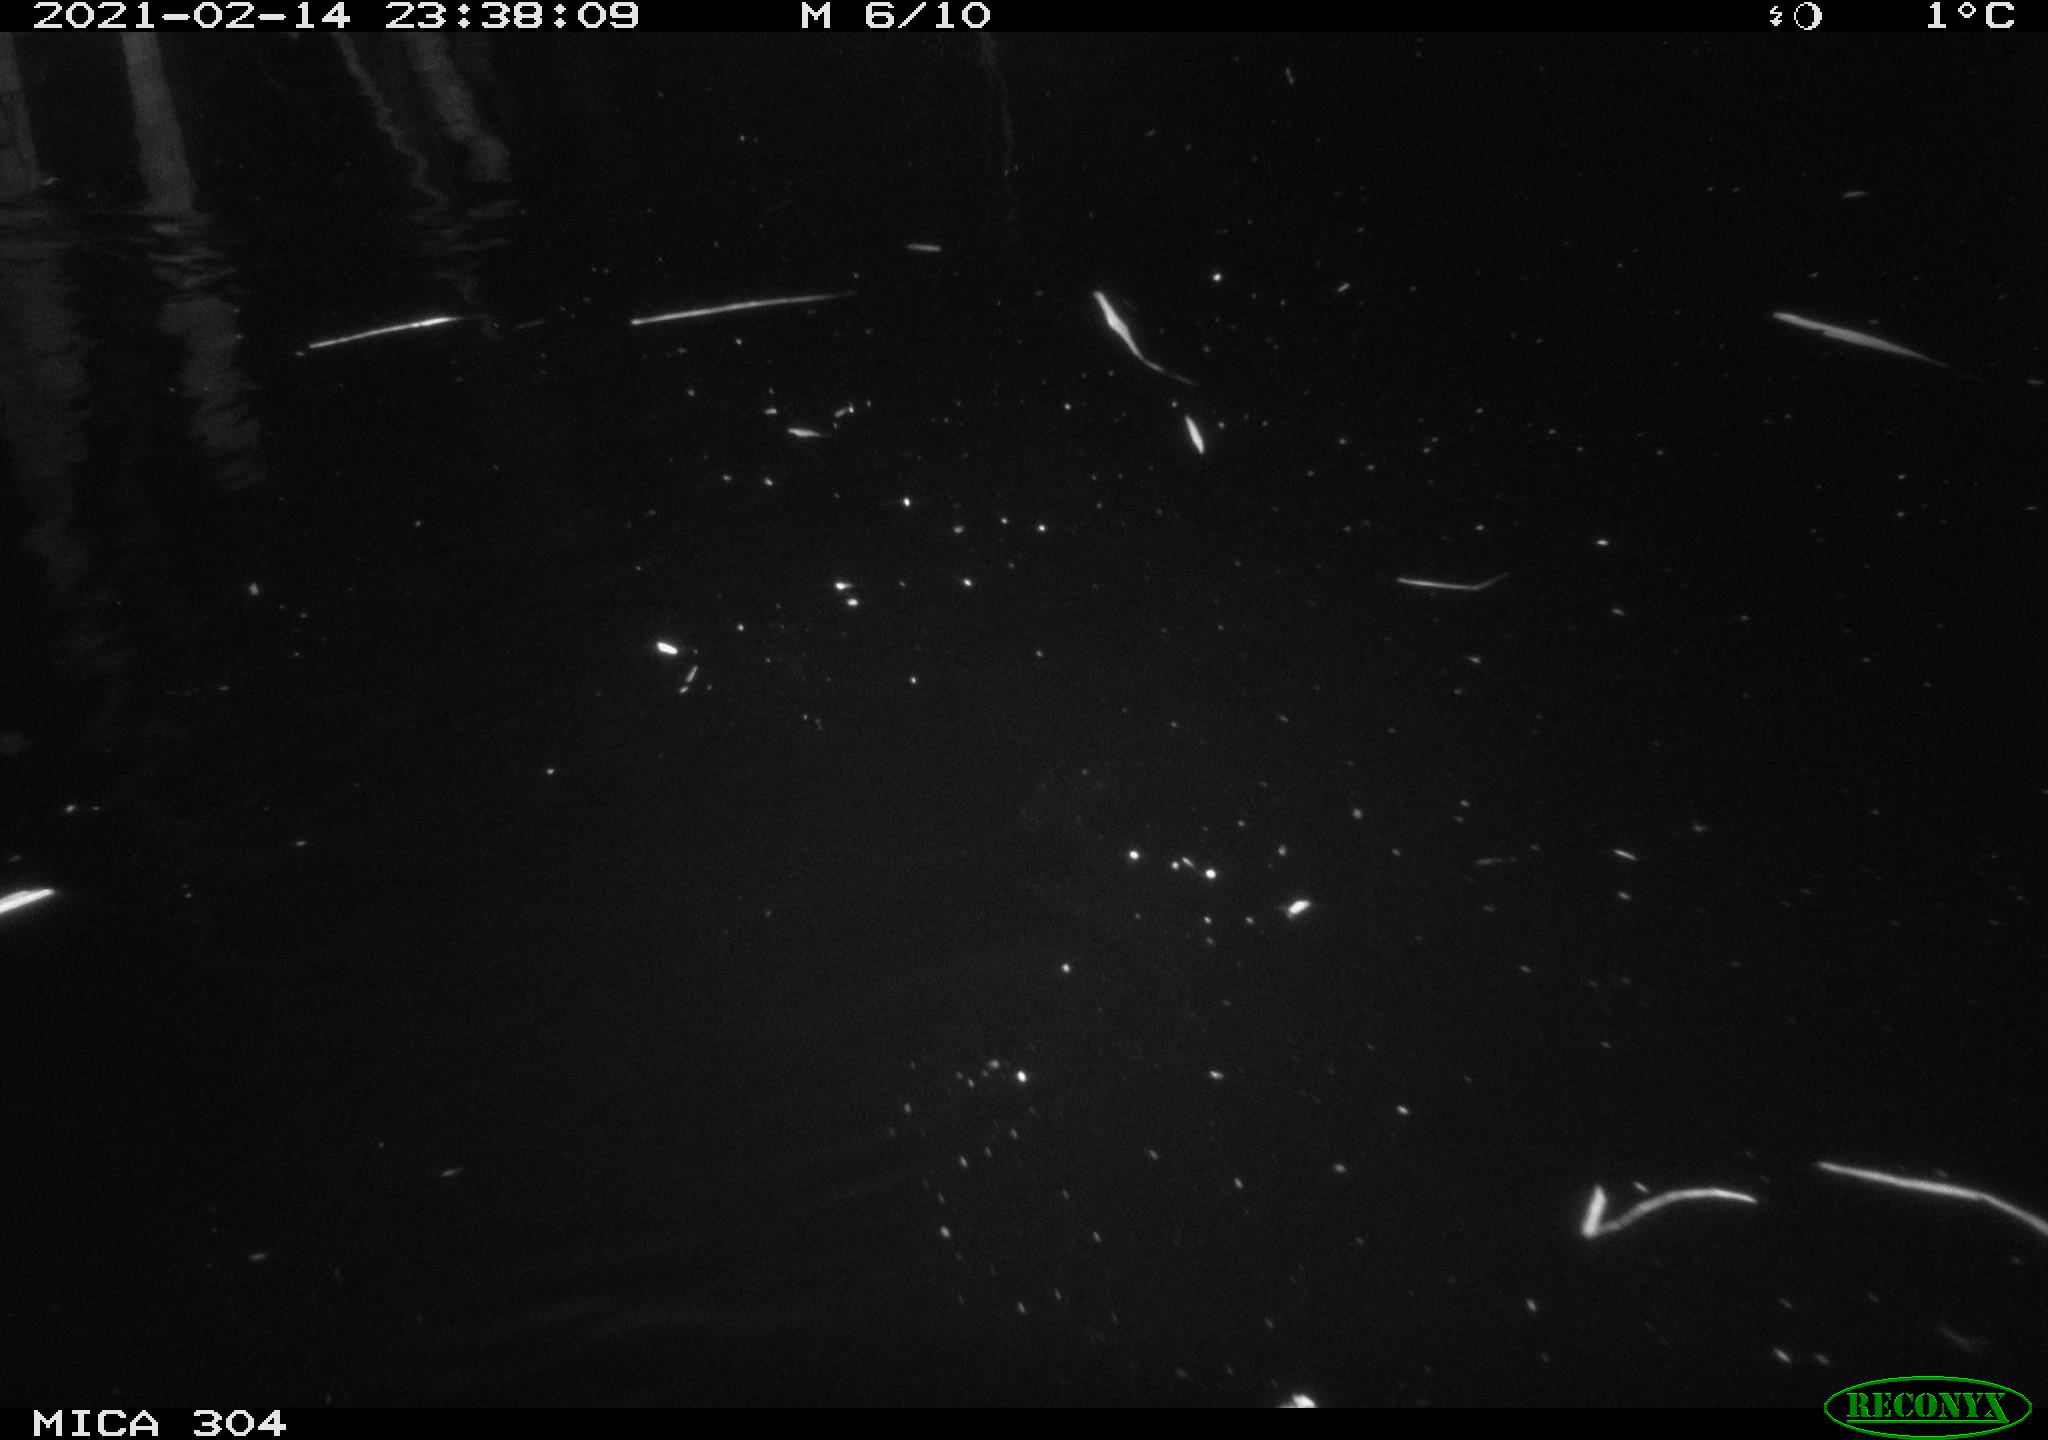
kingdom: Animalia
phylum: Chordata
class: Mammalia
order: Rodentia
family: Muridae
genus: Rattus
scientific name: Rattus norvegicus
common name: Brown rat
